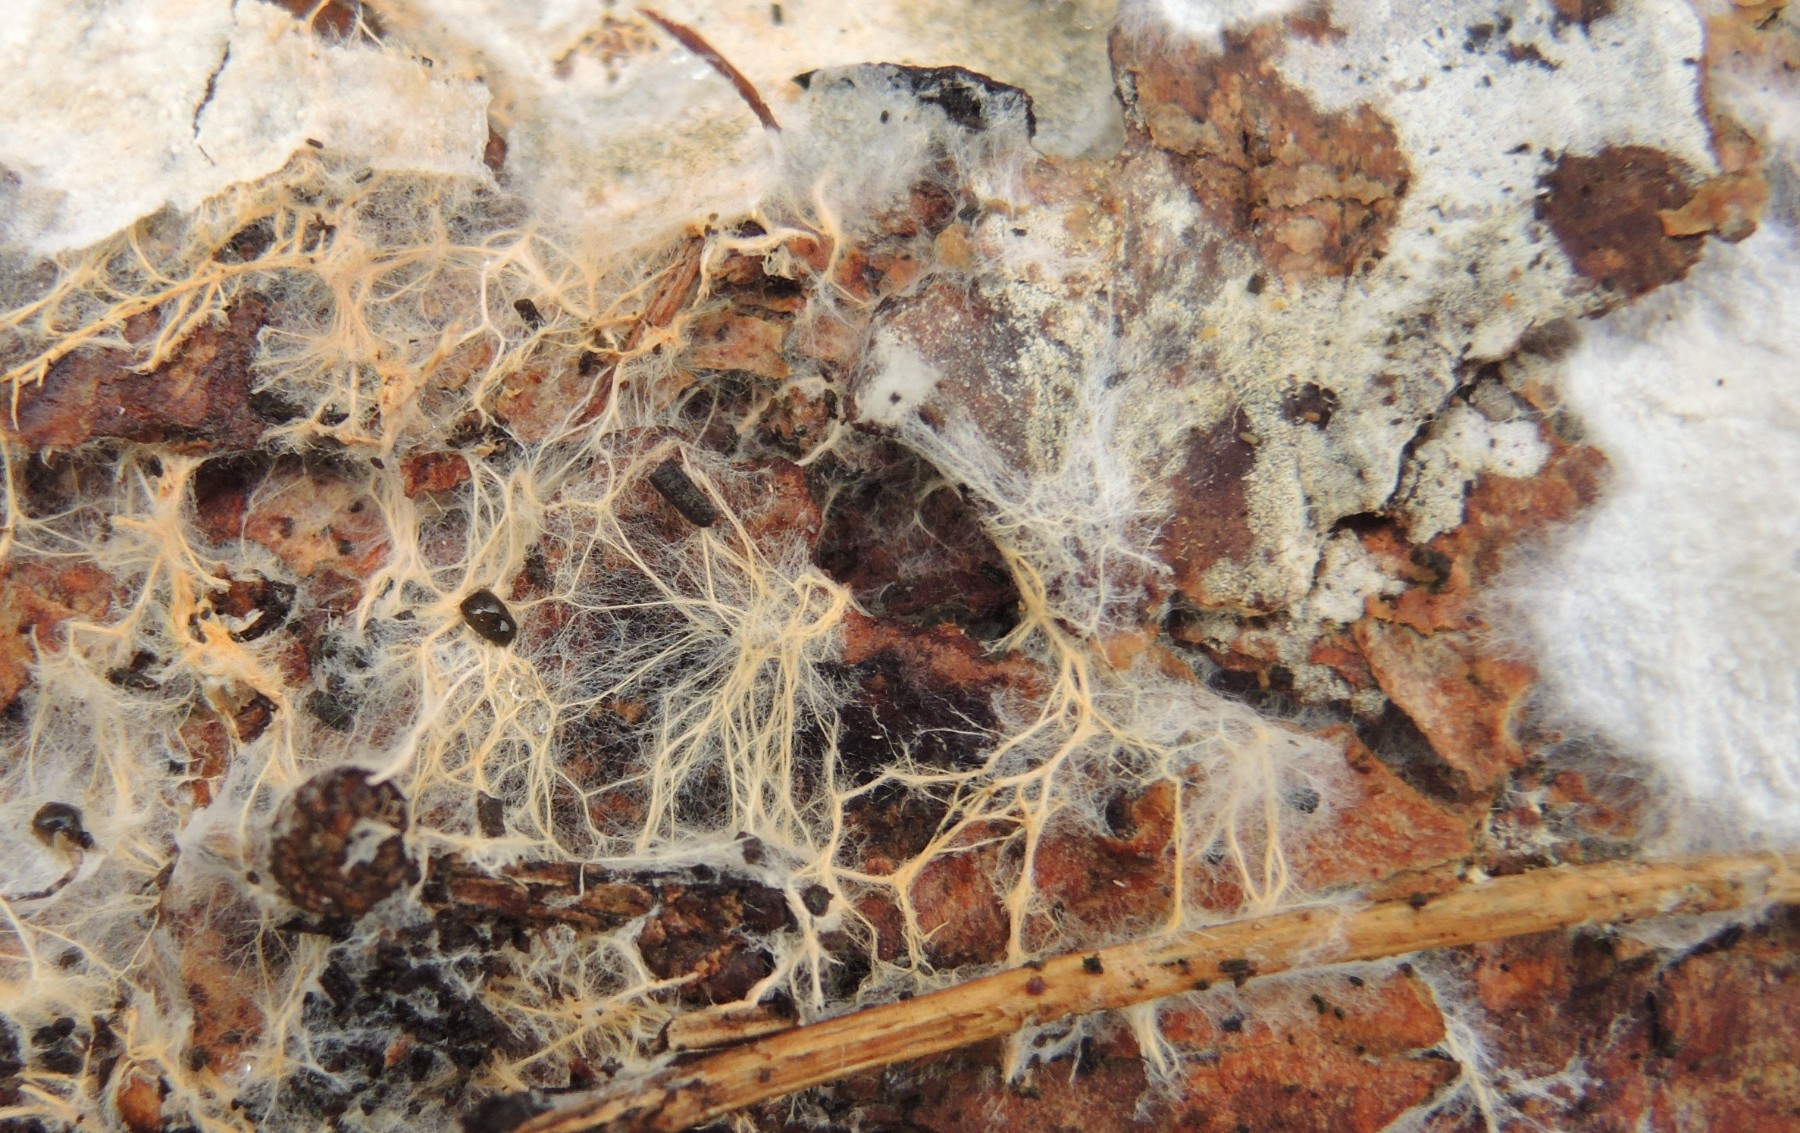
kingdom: Fungi
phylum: Basidiomycota
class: Agaricomycetes
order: Atheliales
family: Atheliaceae
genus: Leptosporomyces
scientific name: Leptosporomyces fuscostratus
